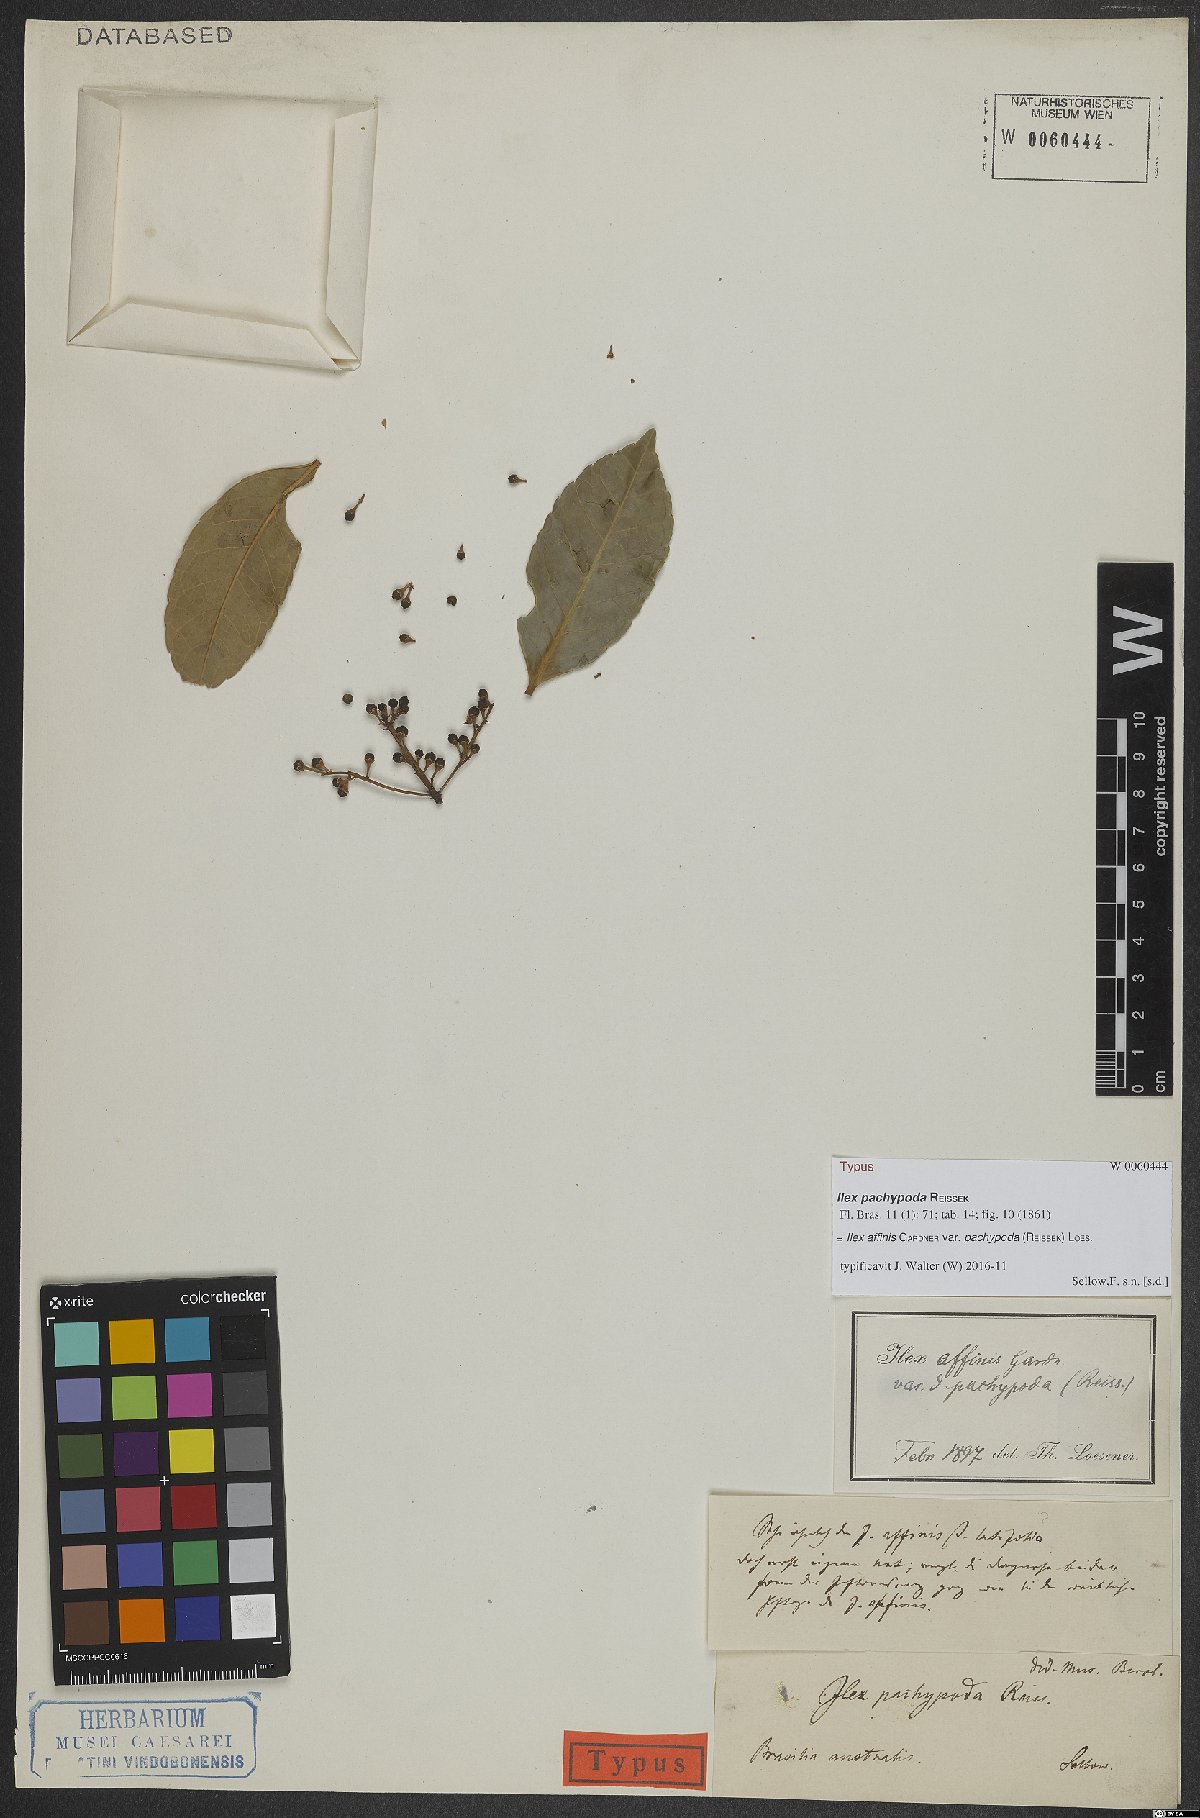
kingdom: Plantae
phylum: Tracheophyta
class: Magnoliopsida
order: Aquifoliales
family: Aquifoliaceae
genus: Ilex
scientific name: Ilex affinis
